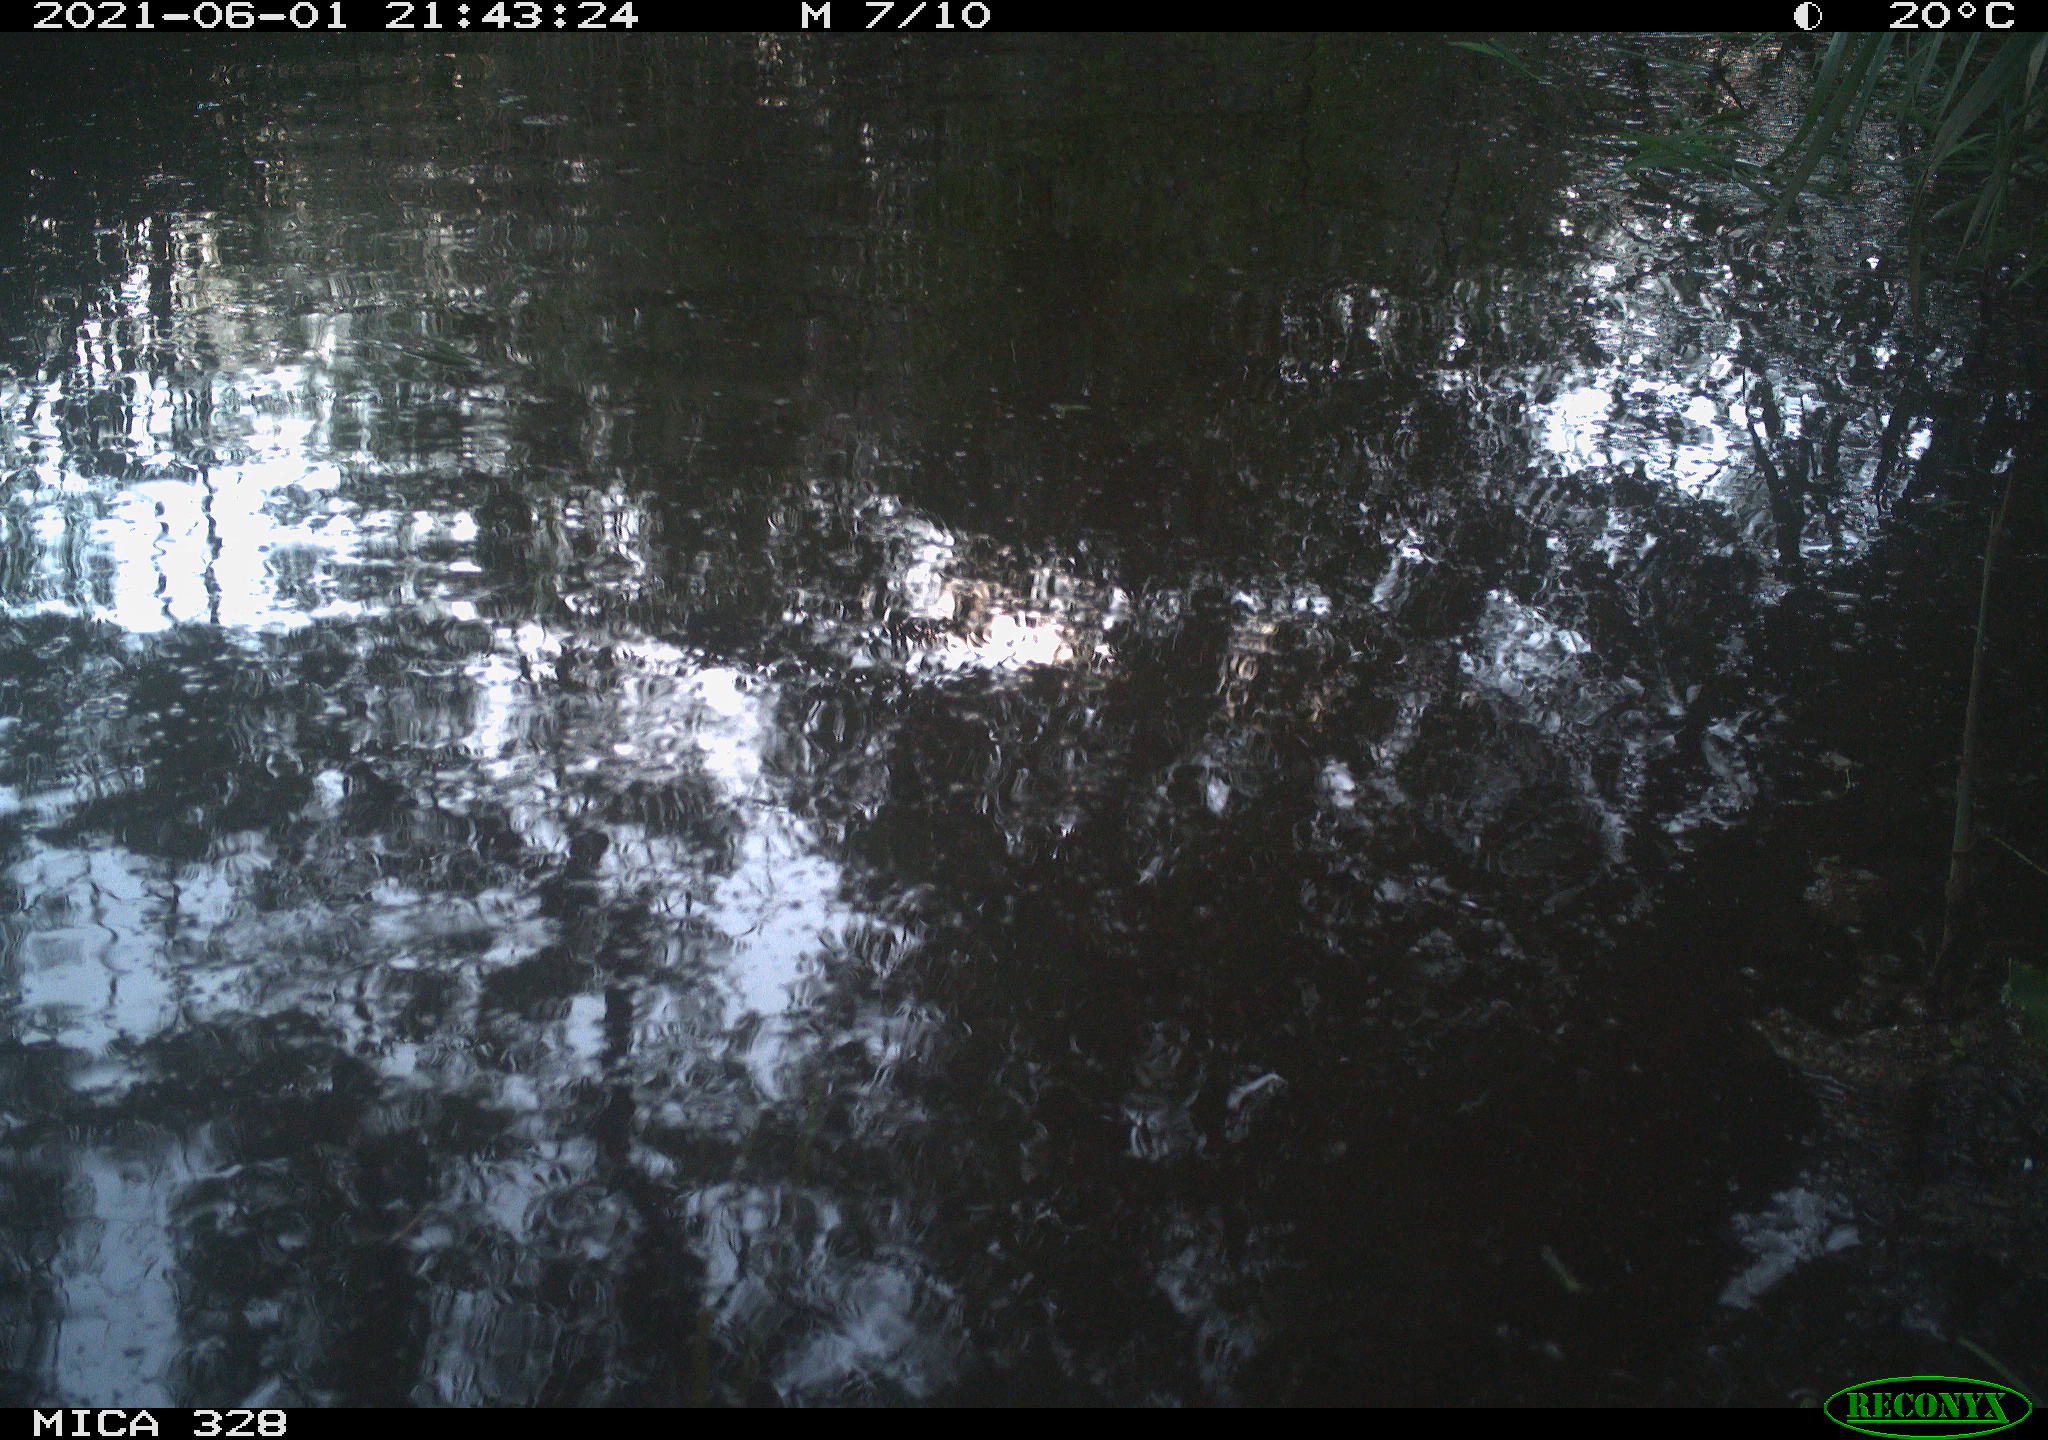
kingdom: Animalia
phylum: Chordata
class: Aves
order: Anseriformes
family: Anatidae
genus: Aix
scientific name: Aix galericulata
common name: Mandarin duck
